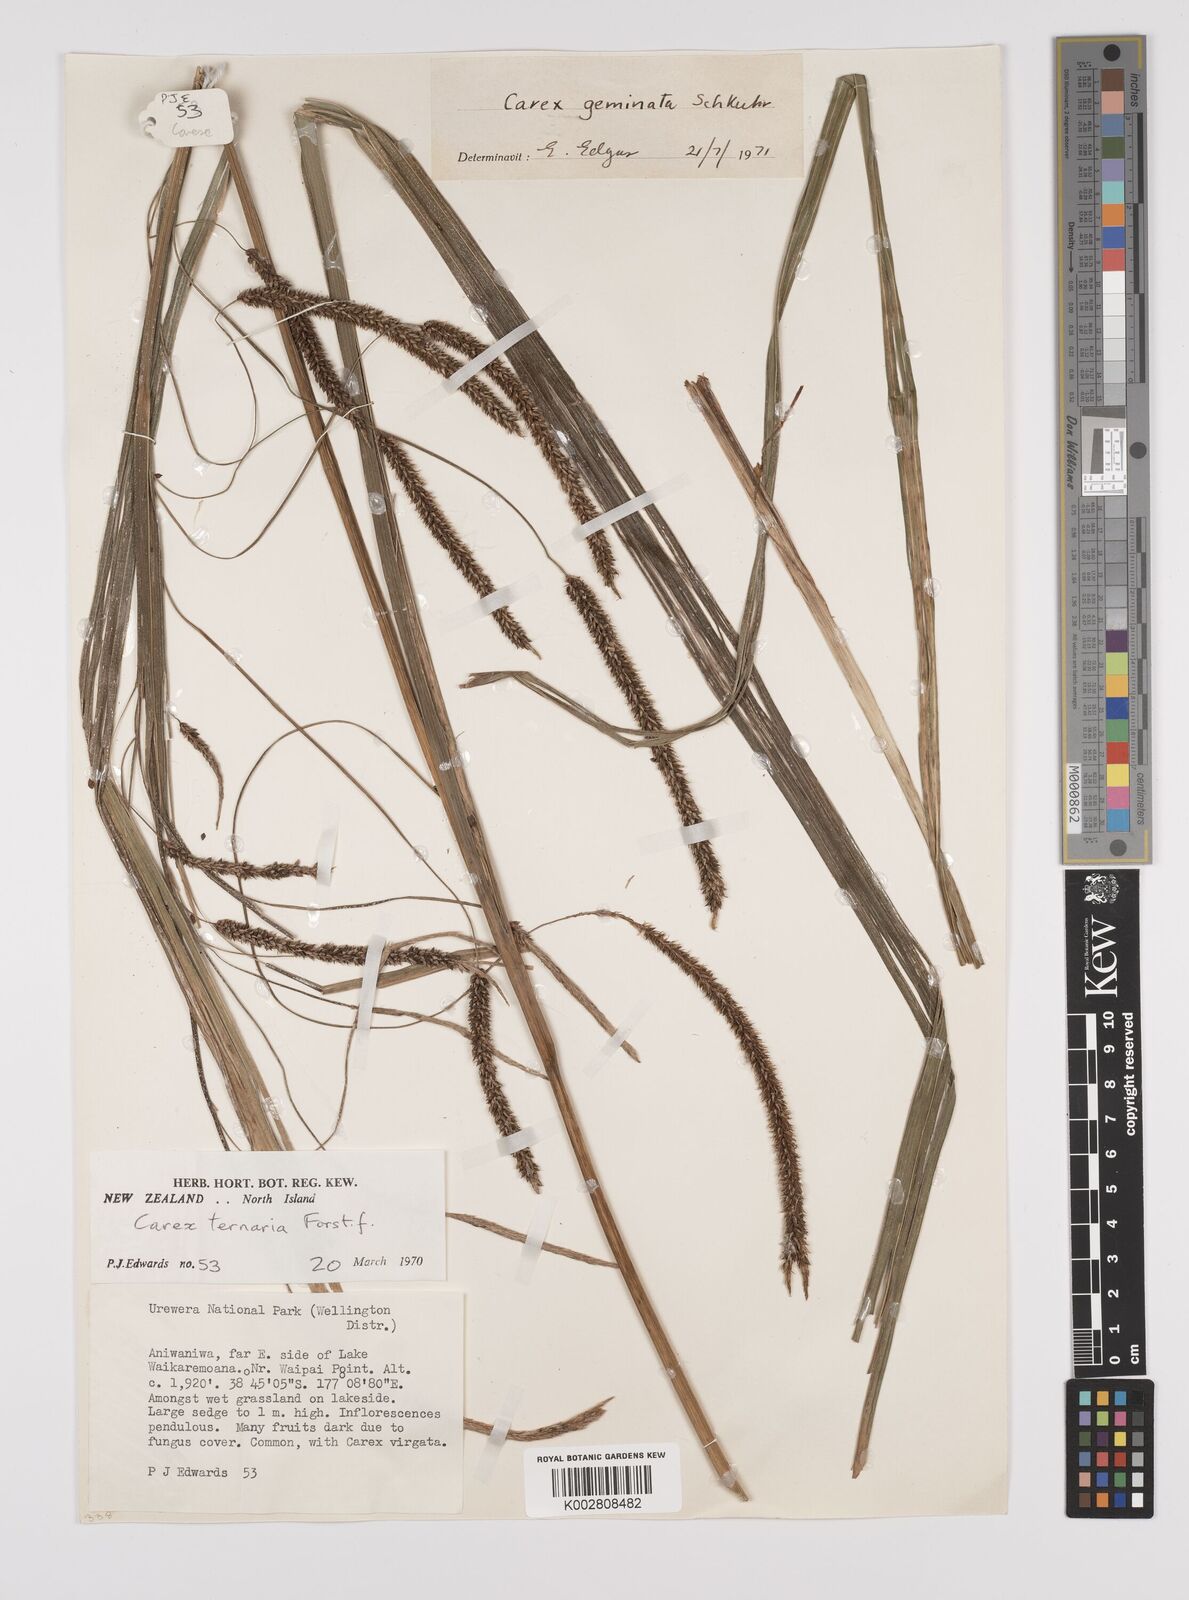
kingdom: Plantae
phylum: Tracheophyta
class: Liliopsida
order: Poales
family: Cyperaceae
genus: Carex
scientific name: Carex geminata
